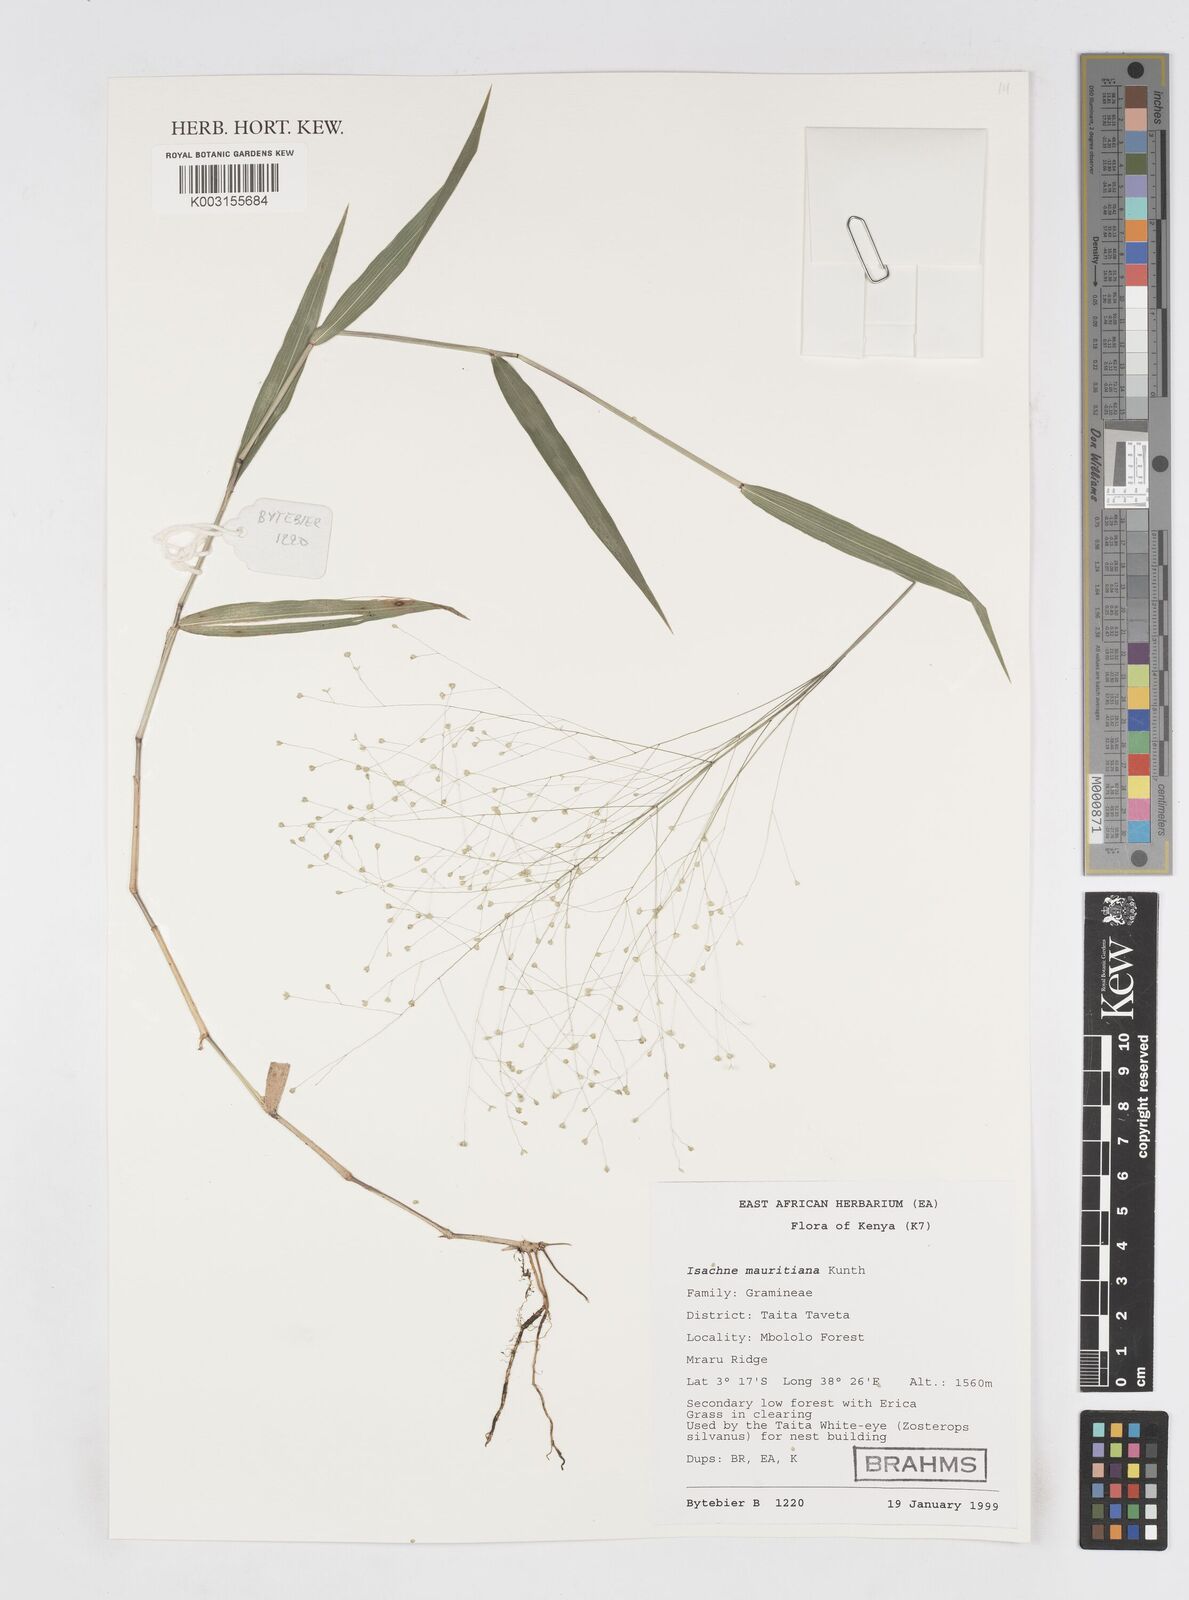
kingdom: Plantae
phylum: Tracheophyta
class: Liliopsida
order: Poales
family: Poaceae
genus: Isachne
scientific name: Isachne mauritiana
